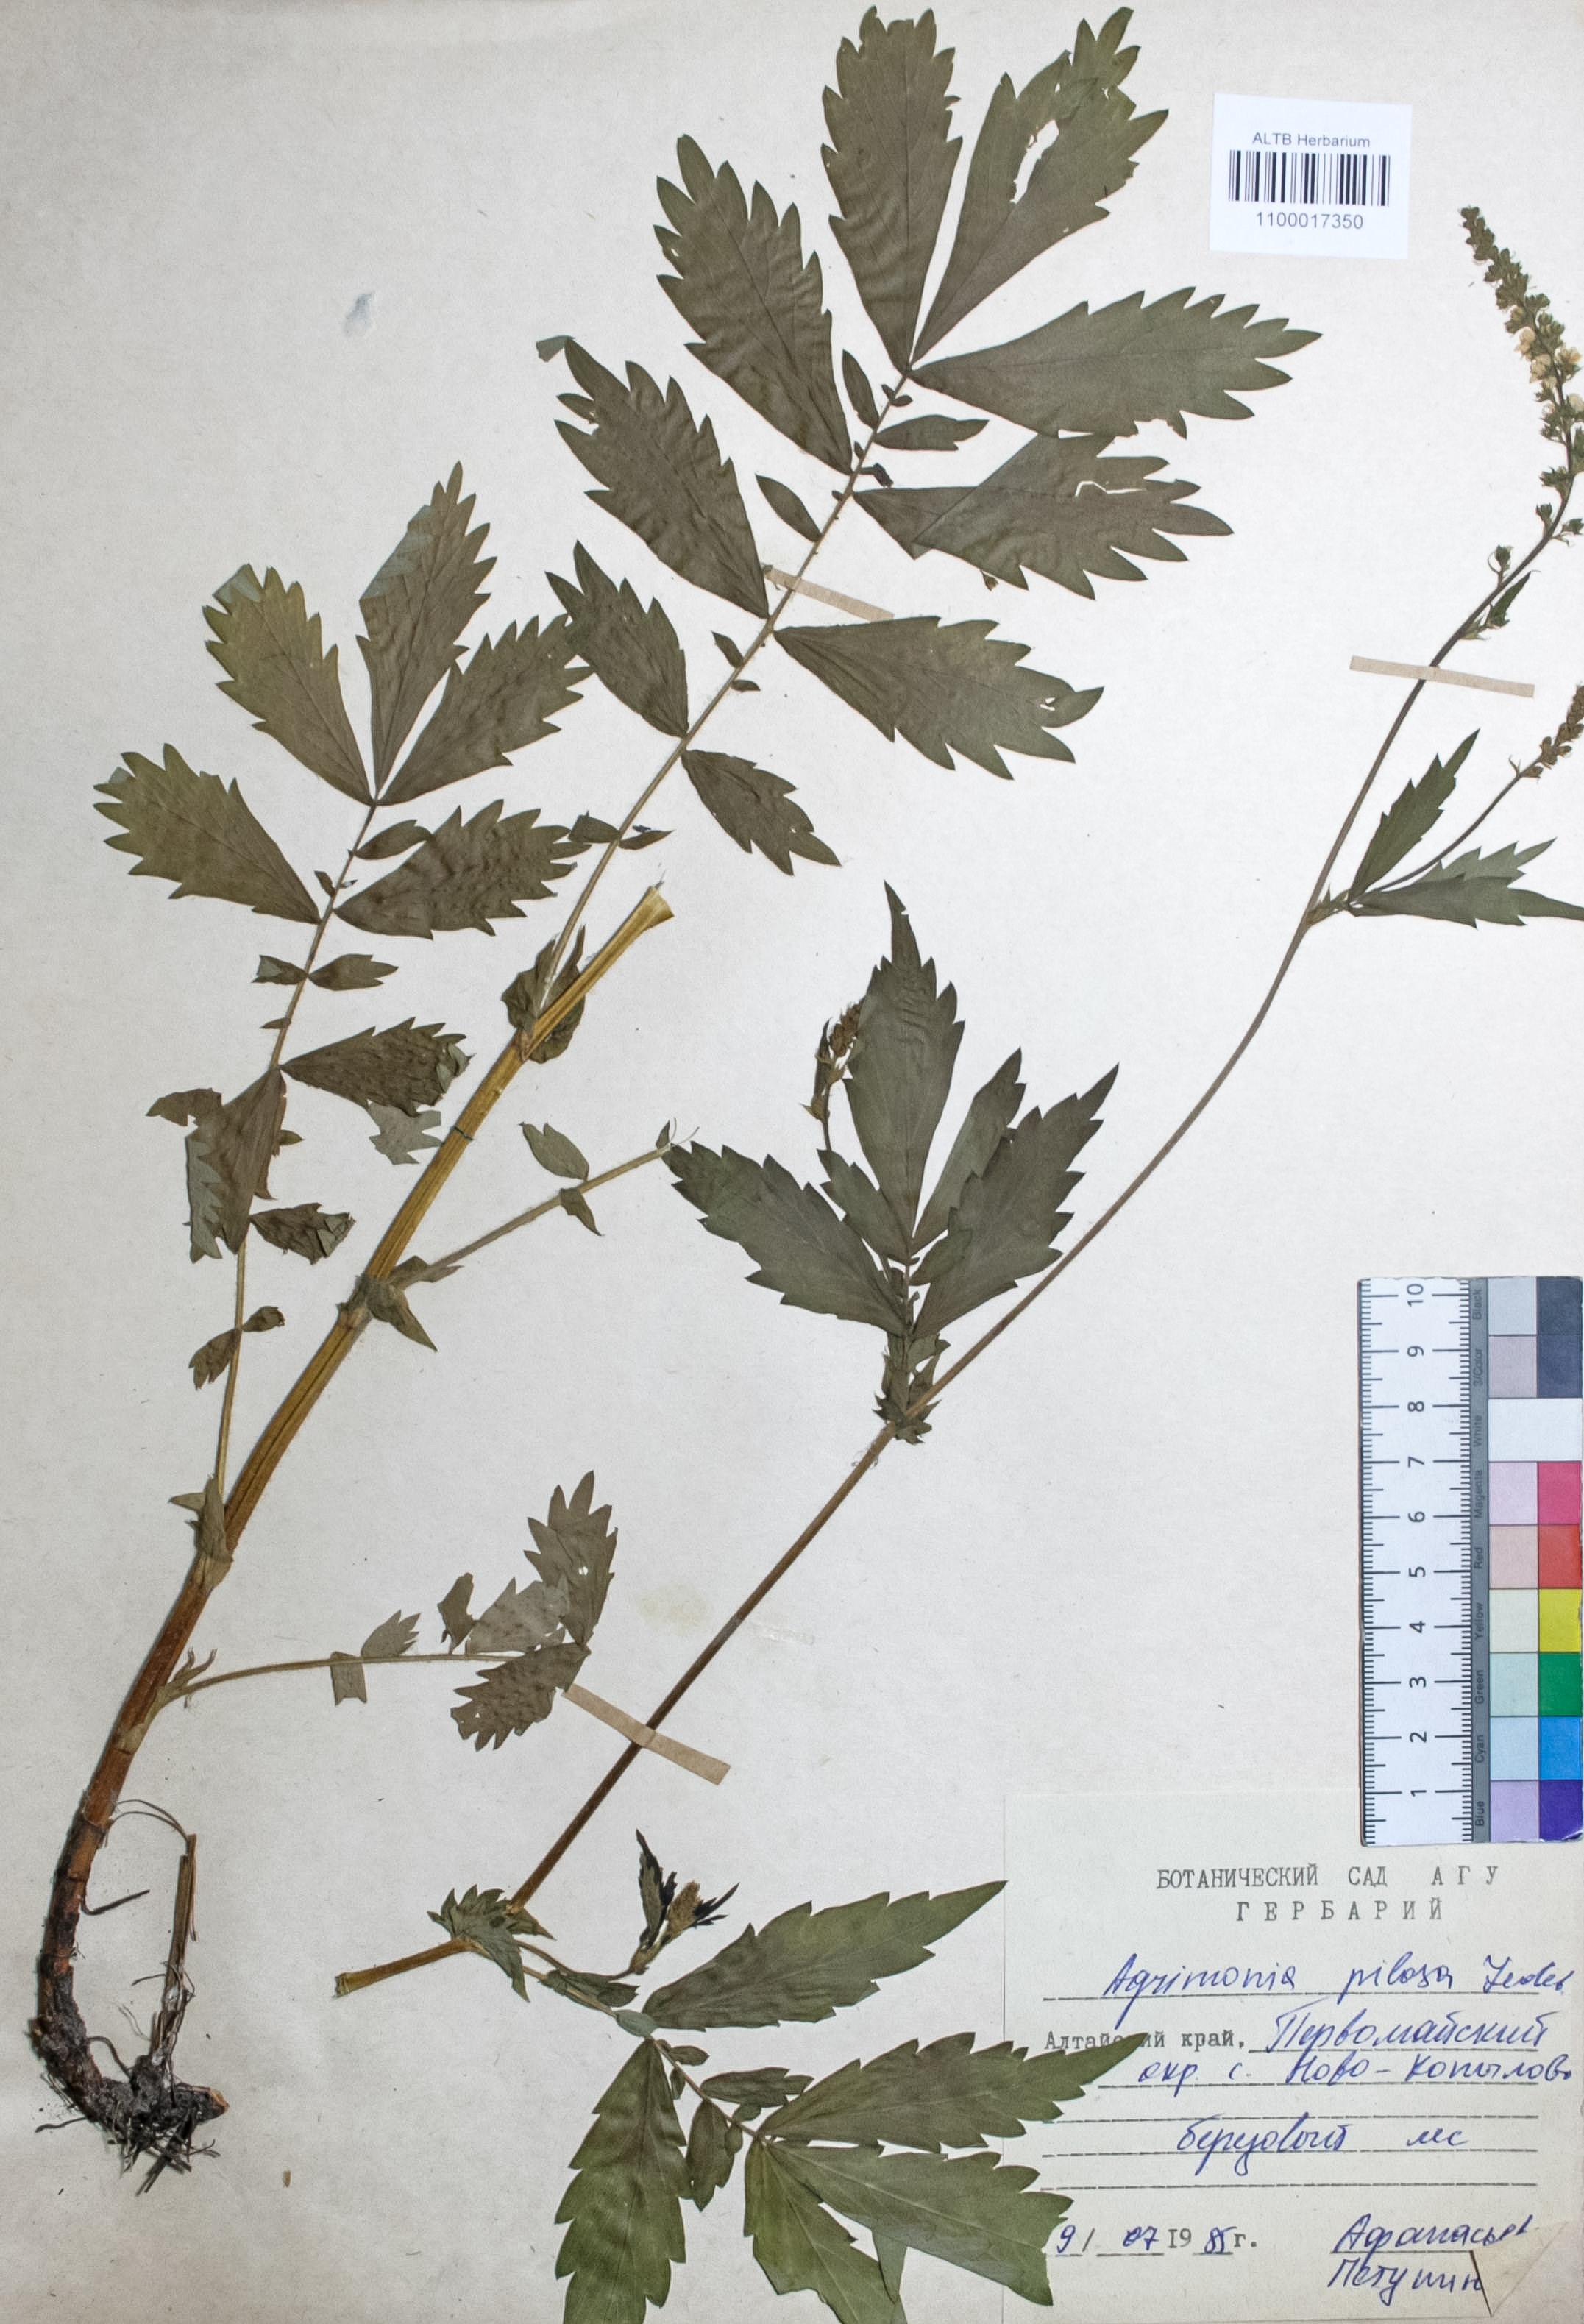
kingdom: Plantae
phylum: Tracheophyta
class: Magnoliopsida
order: Rosales
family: Rosaceae
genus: Agrimonia
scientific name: Agrimonia pilosa
